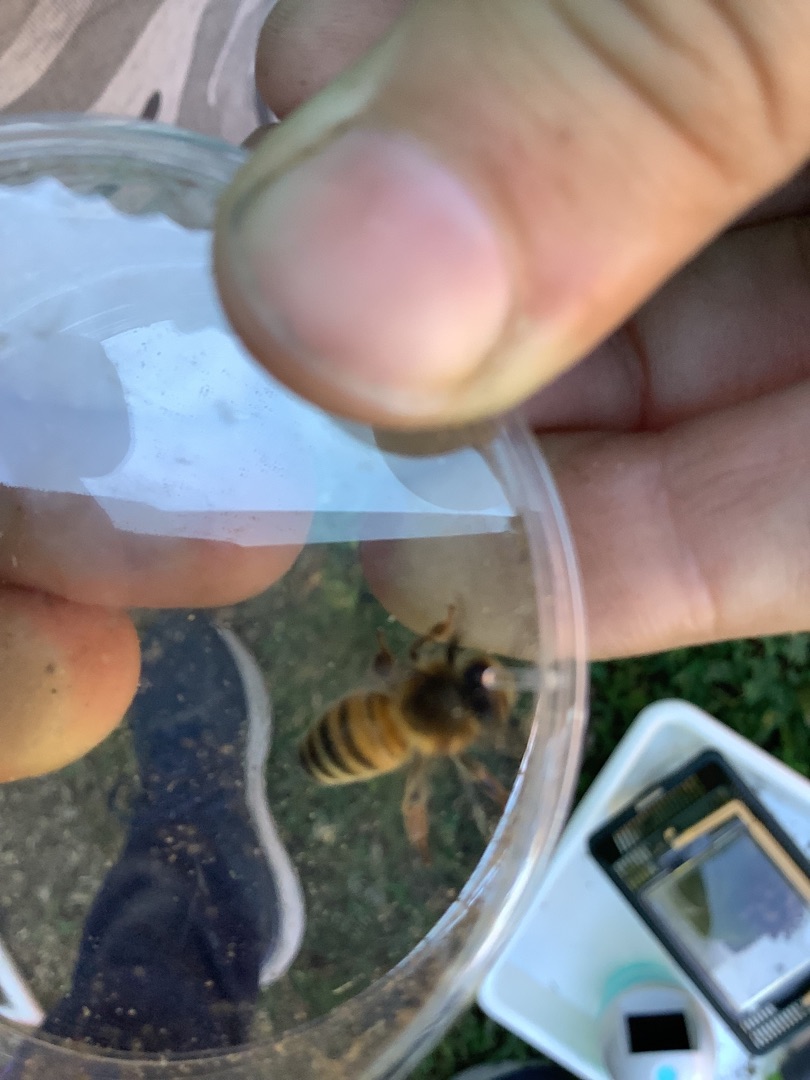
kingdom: Animalia
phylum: Arthropoda
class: Insecta
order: Hymenoptera
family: Apidae
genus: Apis
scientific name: Apis mellifera
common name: Honningbi
